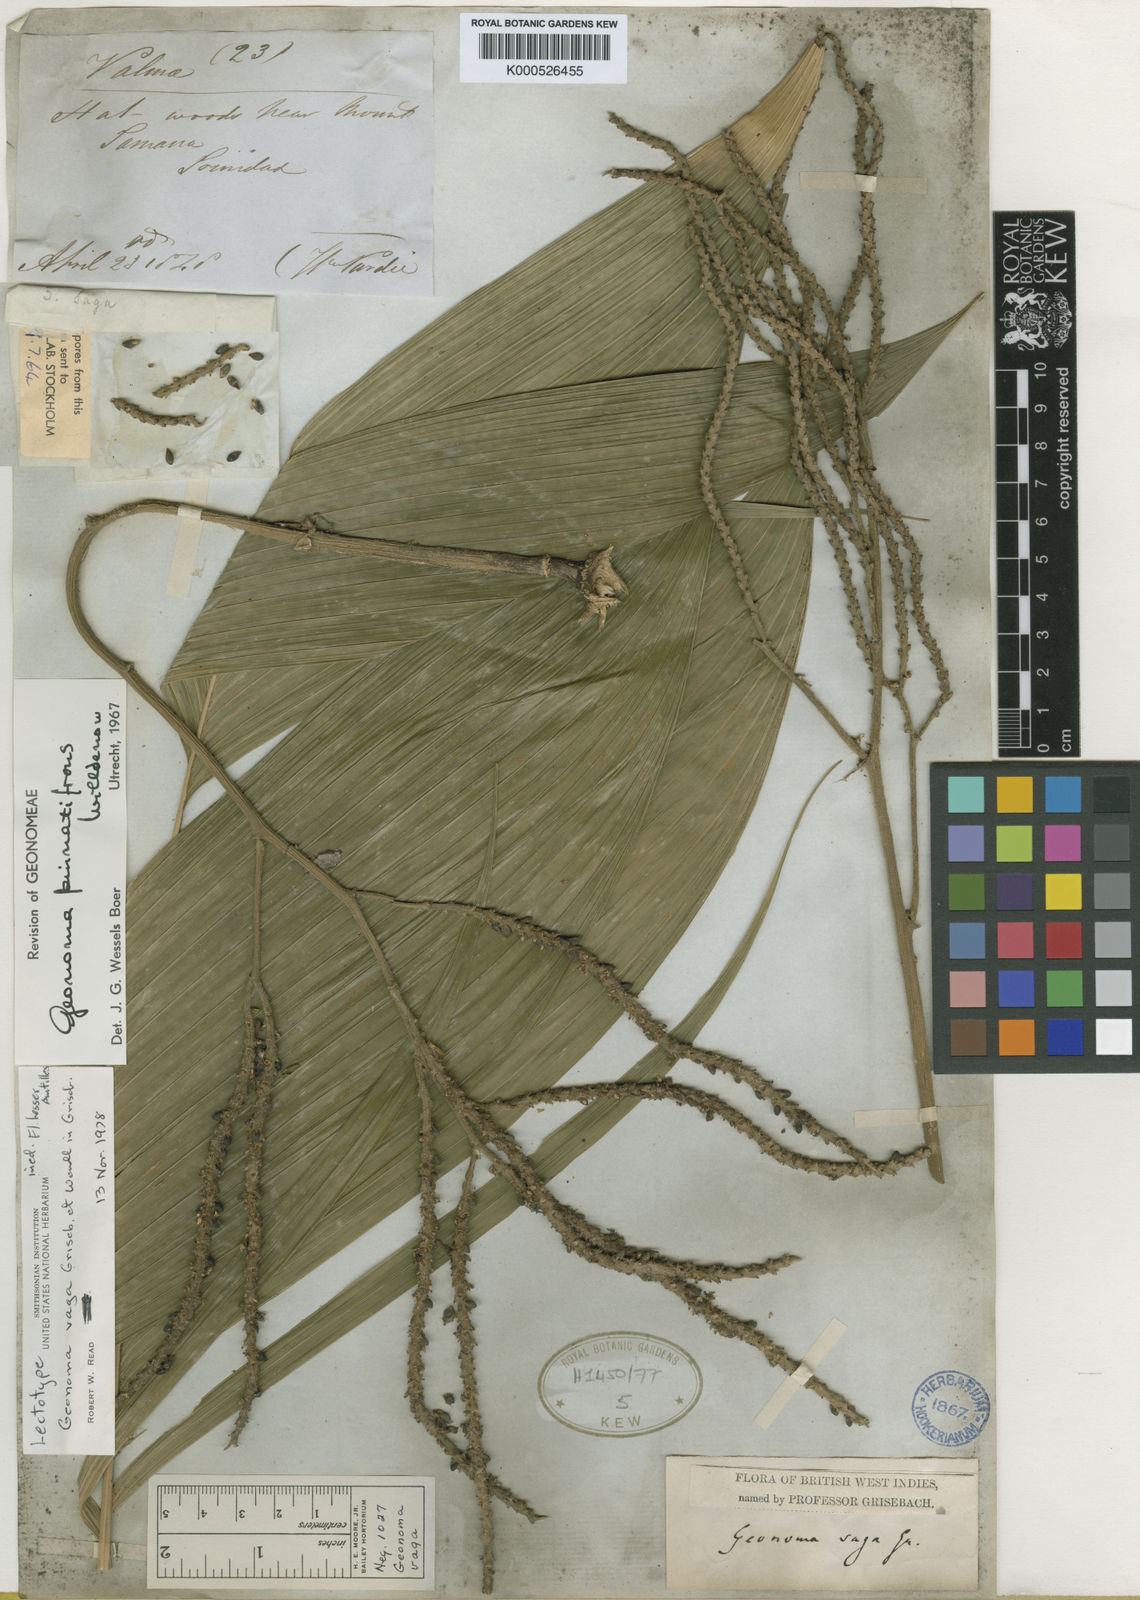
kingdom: Plantae
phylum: Tracheophyta
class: Liliopsida
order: Arecales
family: Arecaceae
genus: Geonoma
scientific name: Geonoma pinnatifrons
